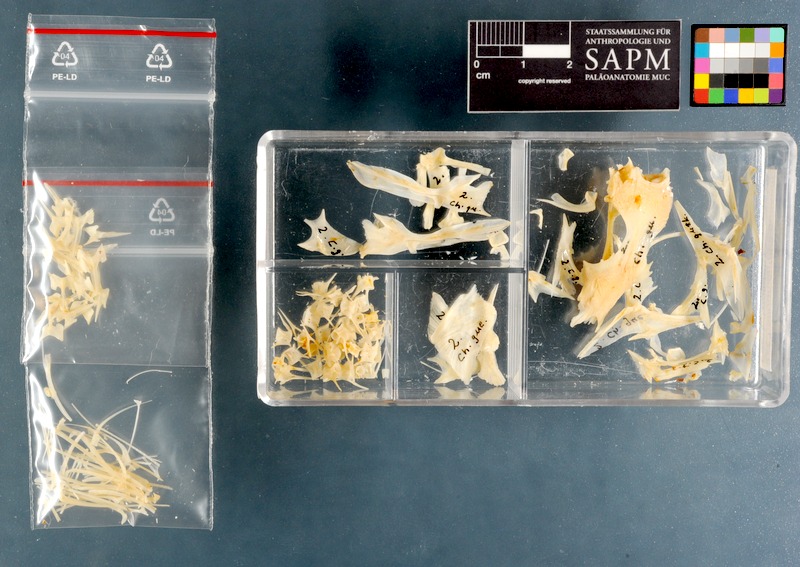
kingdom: Animalia
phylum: Chordata
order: Scorpaeniformes
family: Triglidae
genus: Chelidonichthys
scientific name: Chelidonichthys queketti
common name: Lesser gurnard
